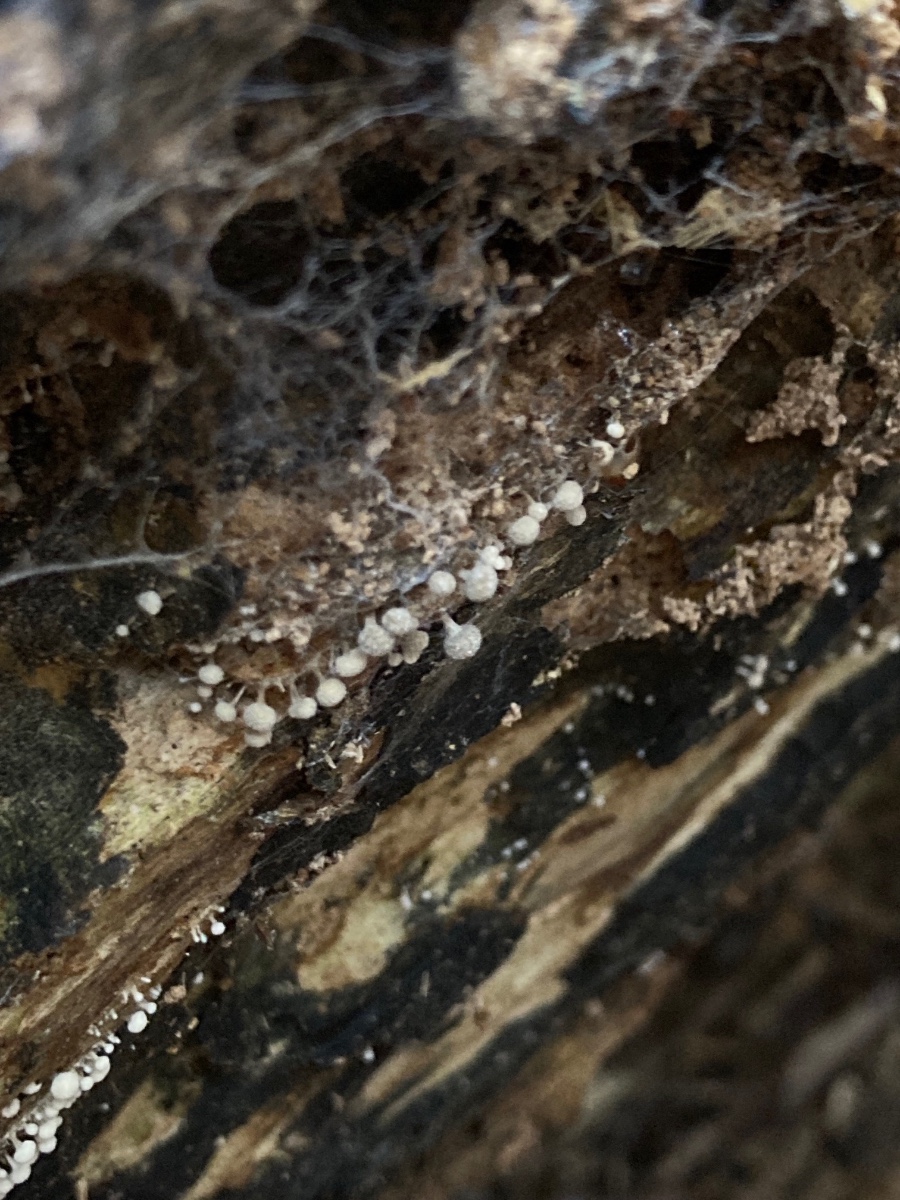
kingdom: Fungi
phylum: Basidiomycota
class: Atractiellomycetes
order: Atractiellales
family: Phleogenaceae
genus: Phleogena
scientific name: Phleogena faginea
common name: pudderkølle
